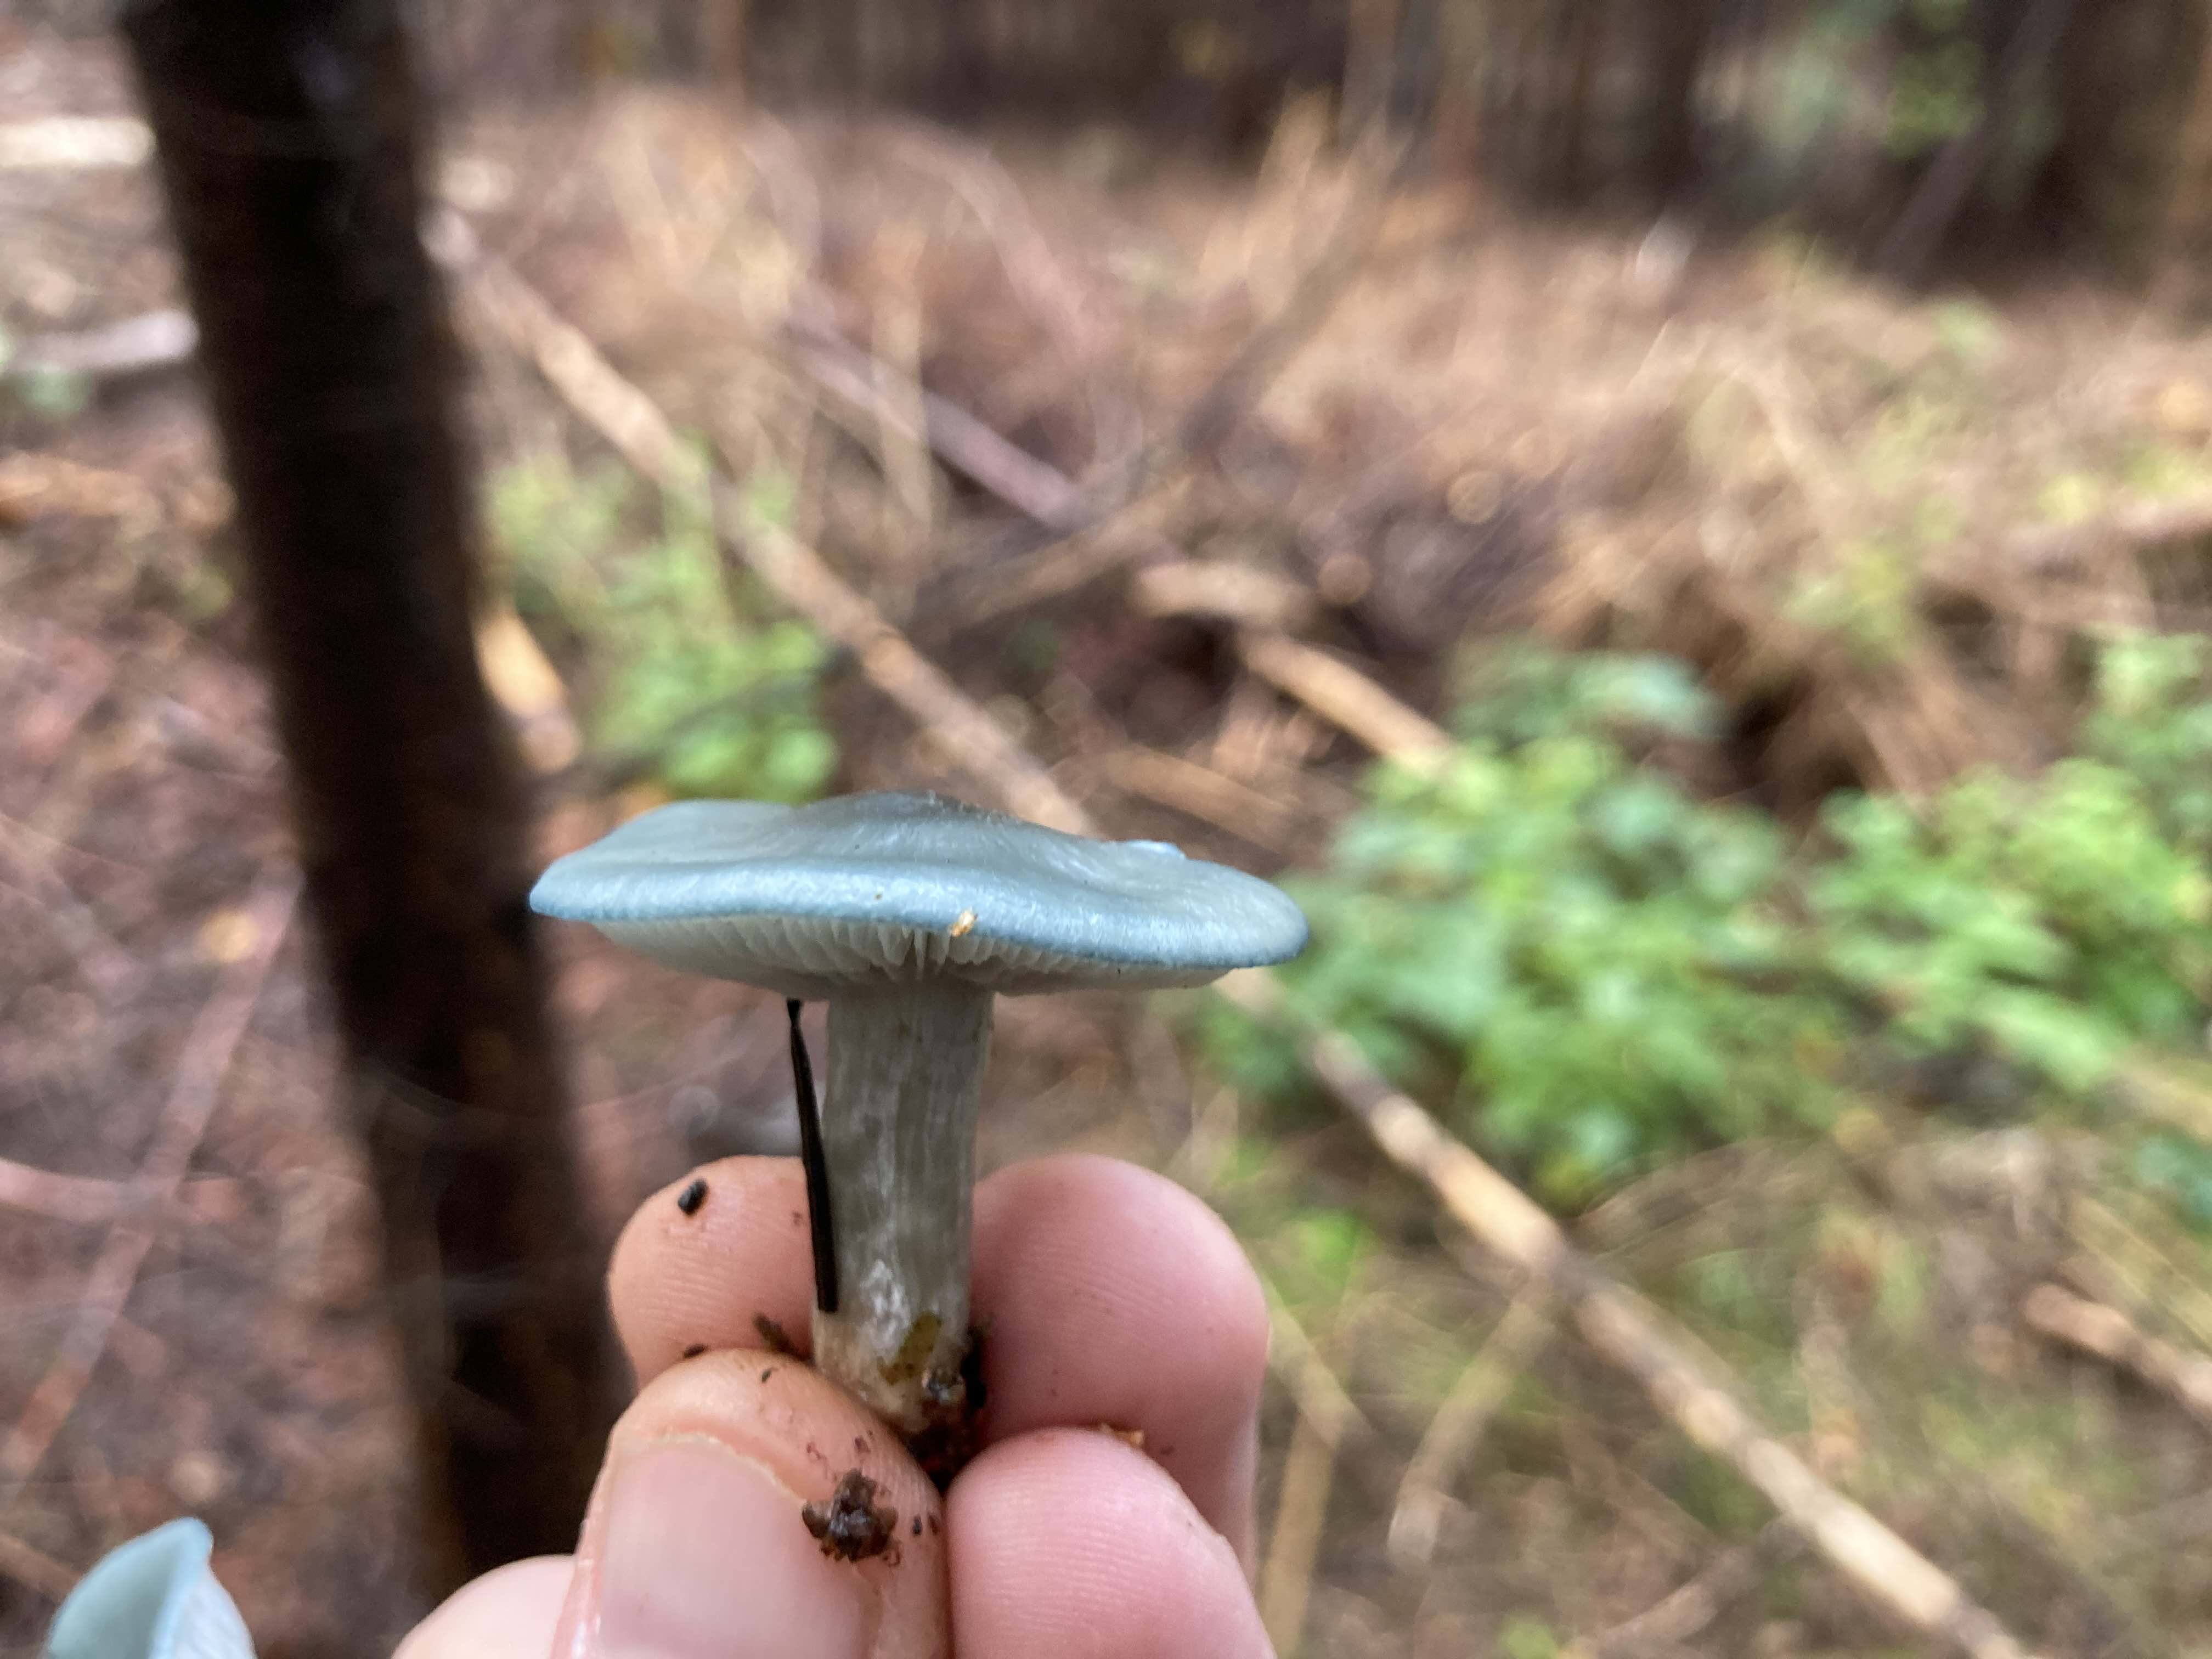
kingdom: Fungi
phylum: Basidiomycota
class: Agaricomycetes
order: Agaricales
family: Strophariaceae
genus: Stropharia
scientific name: Stropharia cyanea
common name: blågrøn bredblad
